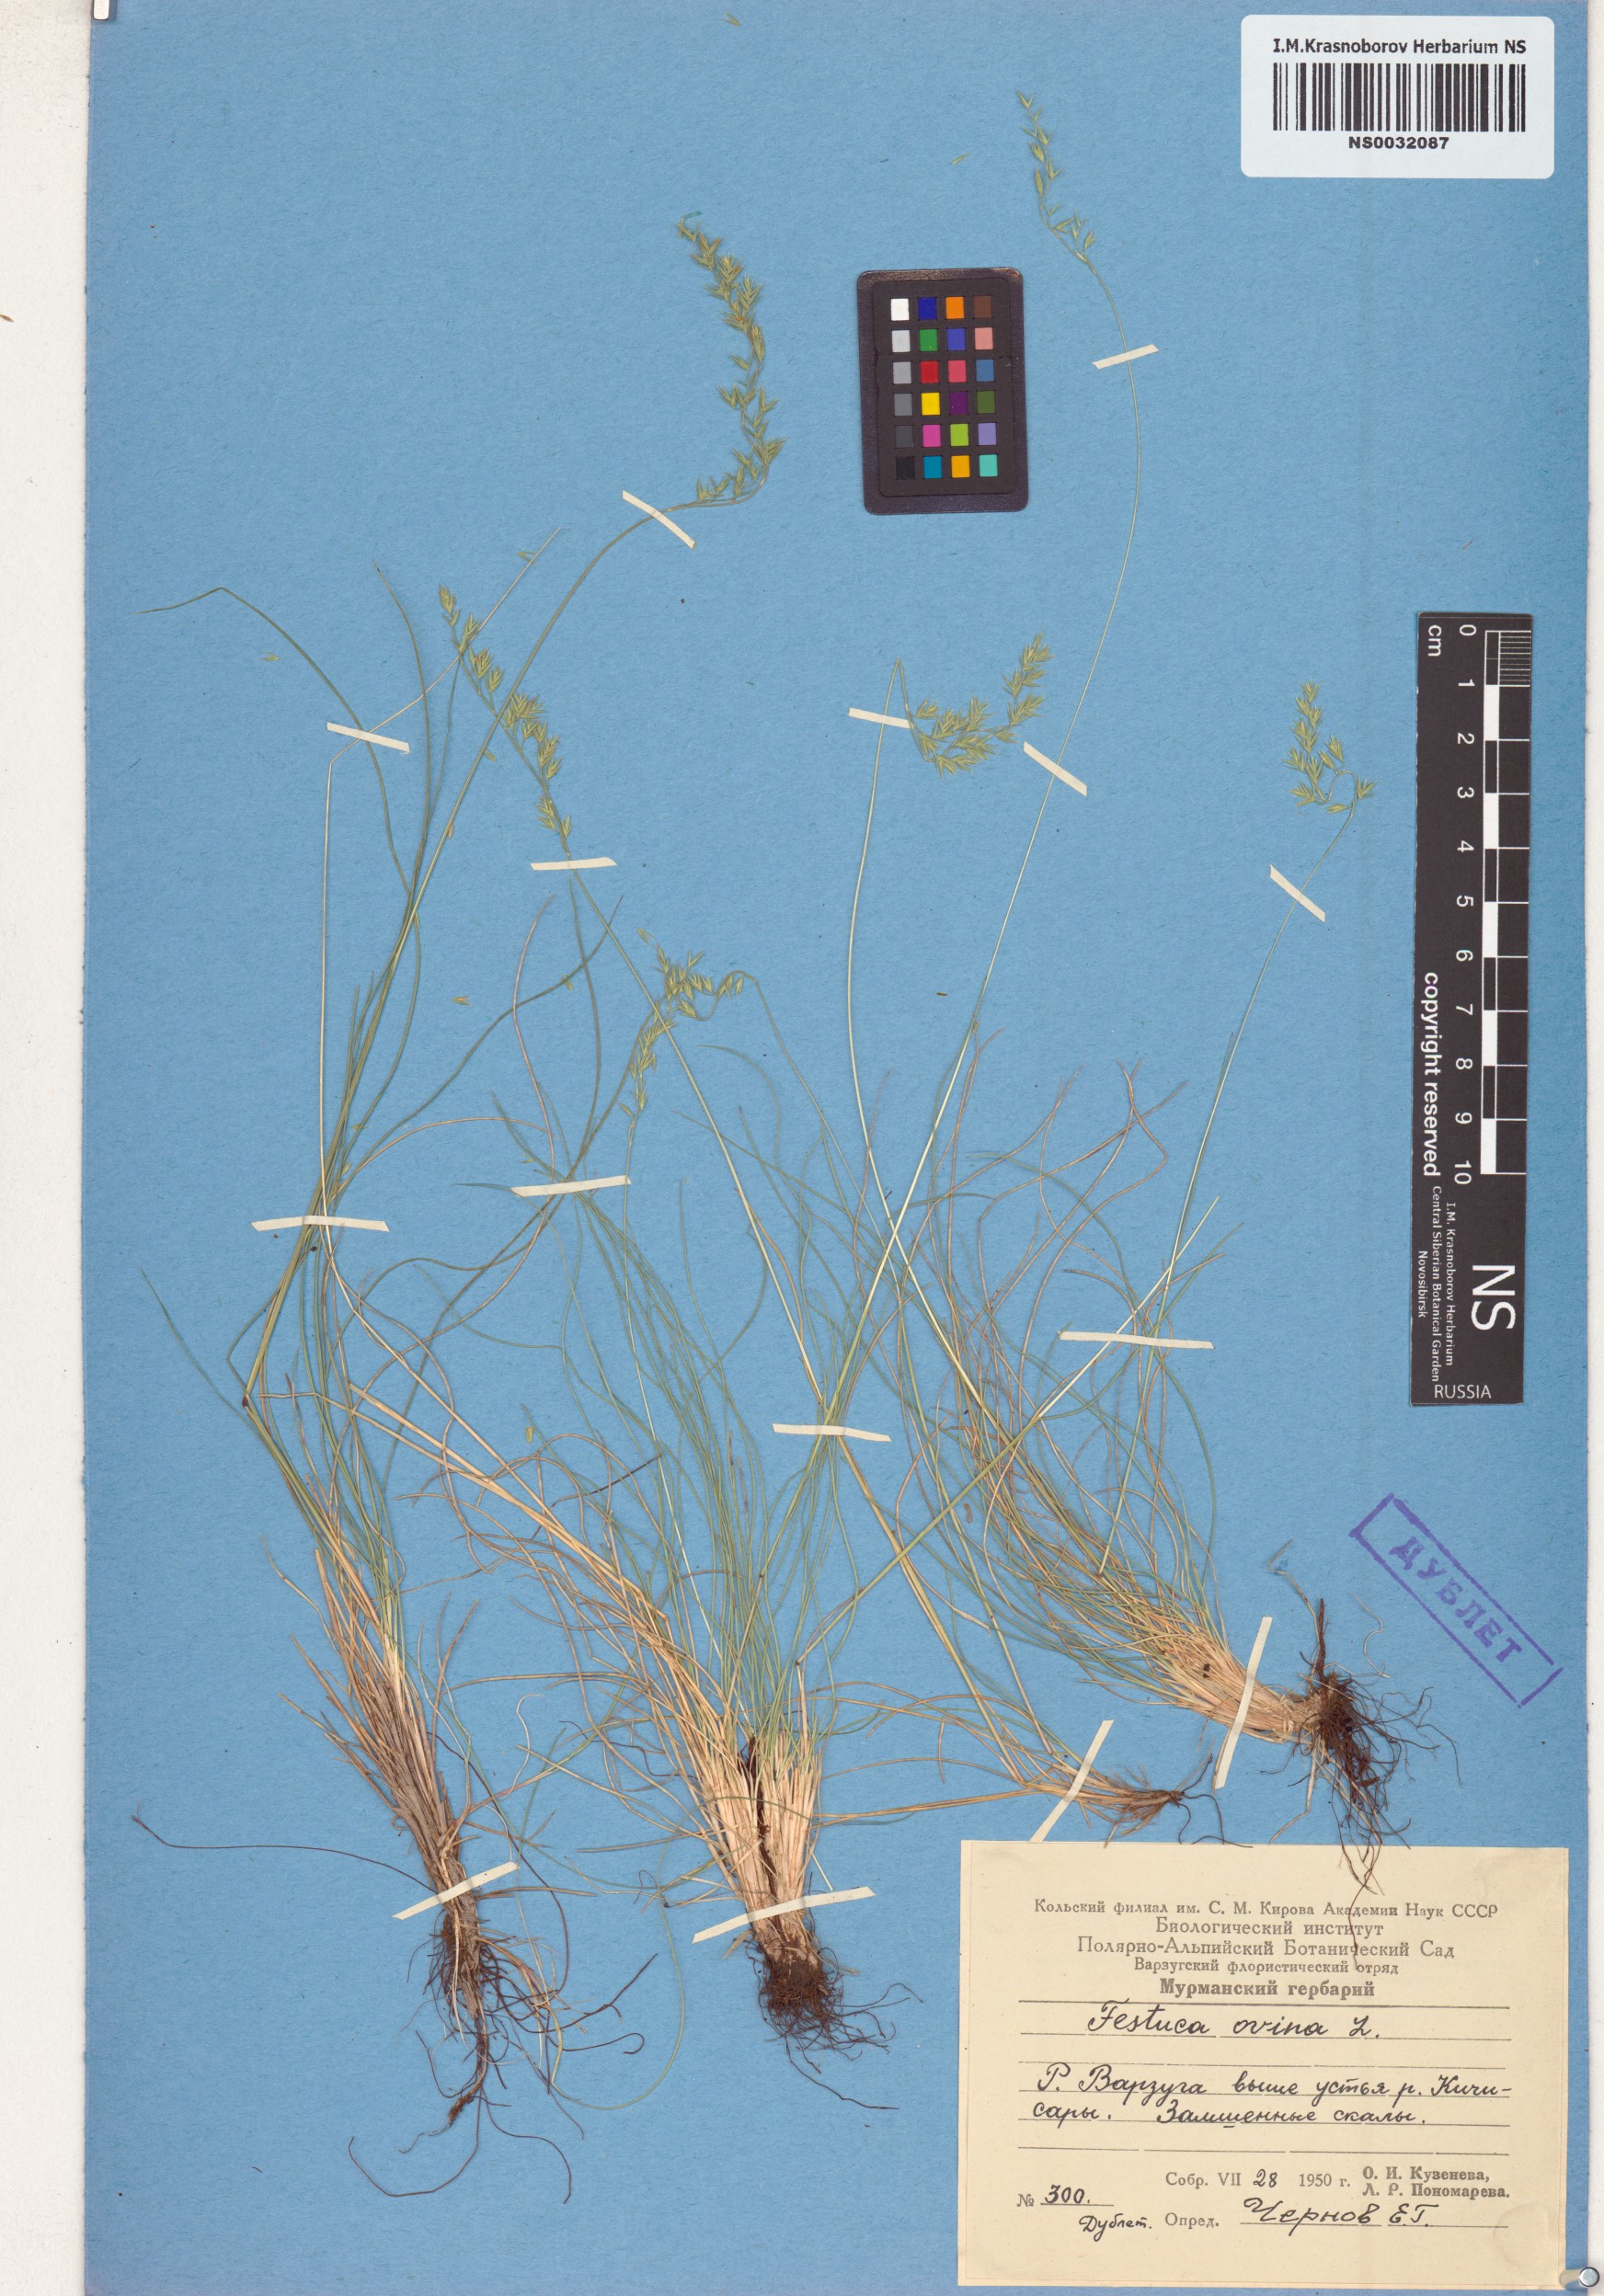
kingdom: Plantae
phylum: Tracheophyta
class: Liliopsida
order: Poales
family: Poaceae
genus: Festuca
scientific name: Festuca ovina
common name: Sheep fescue
